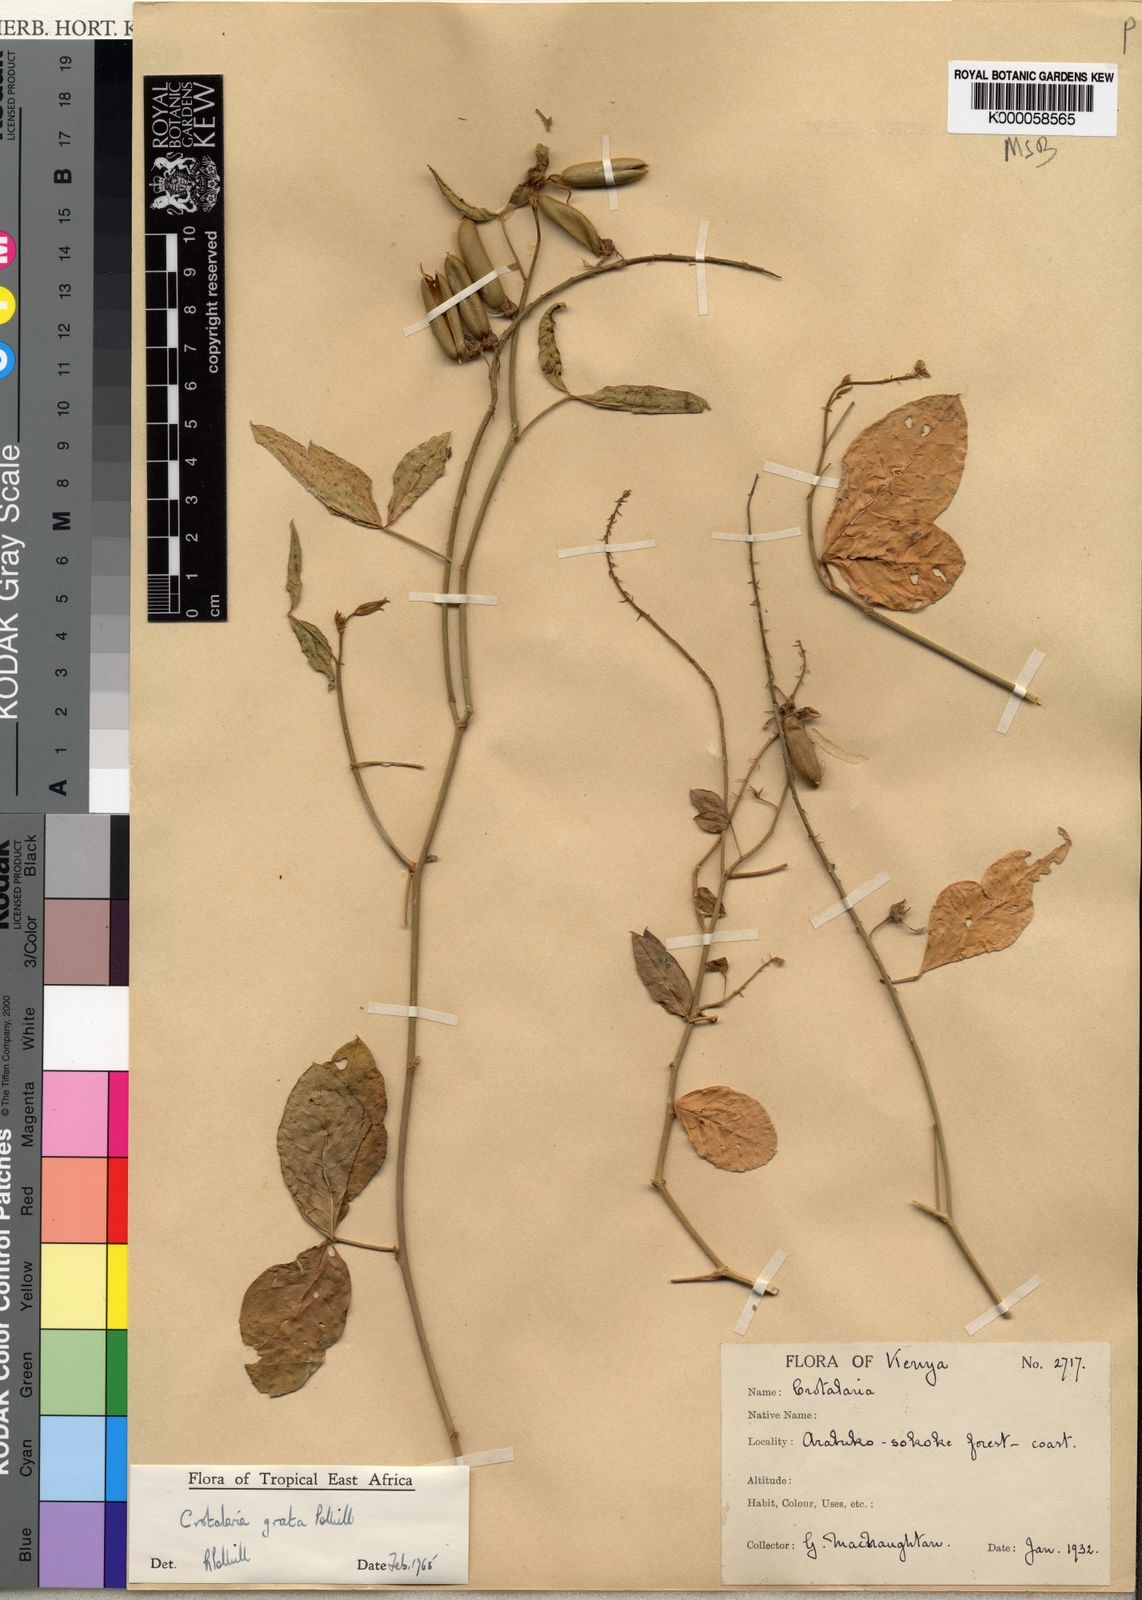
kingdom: Plantae
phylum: Tracheophyta
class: Magnoliopsida
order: Fabales
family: Fabaceae
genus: Crotalaria
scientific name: Crotalaria grata
